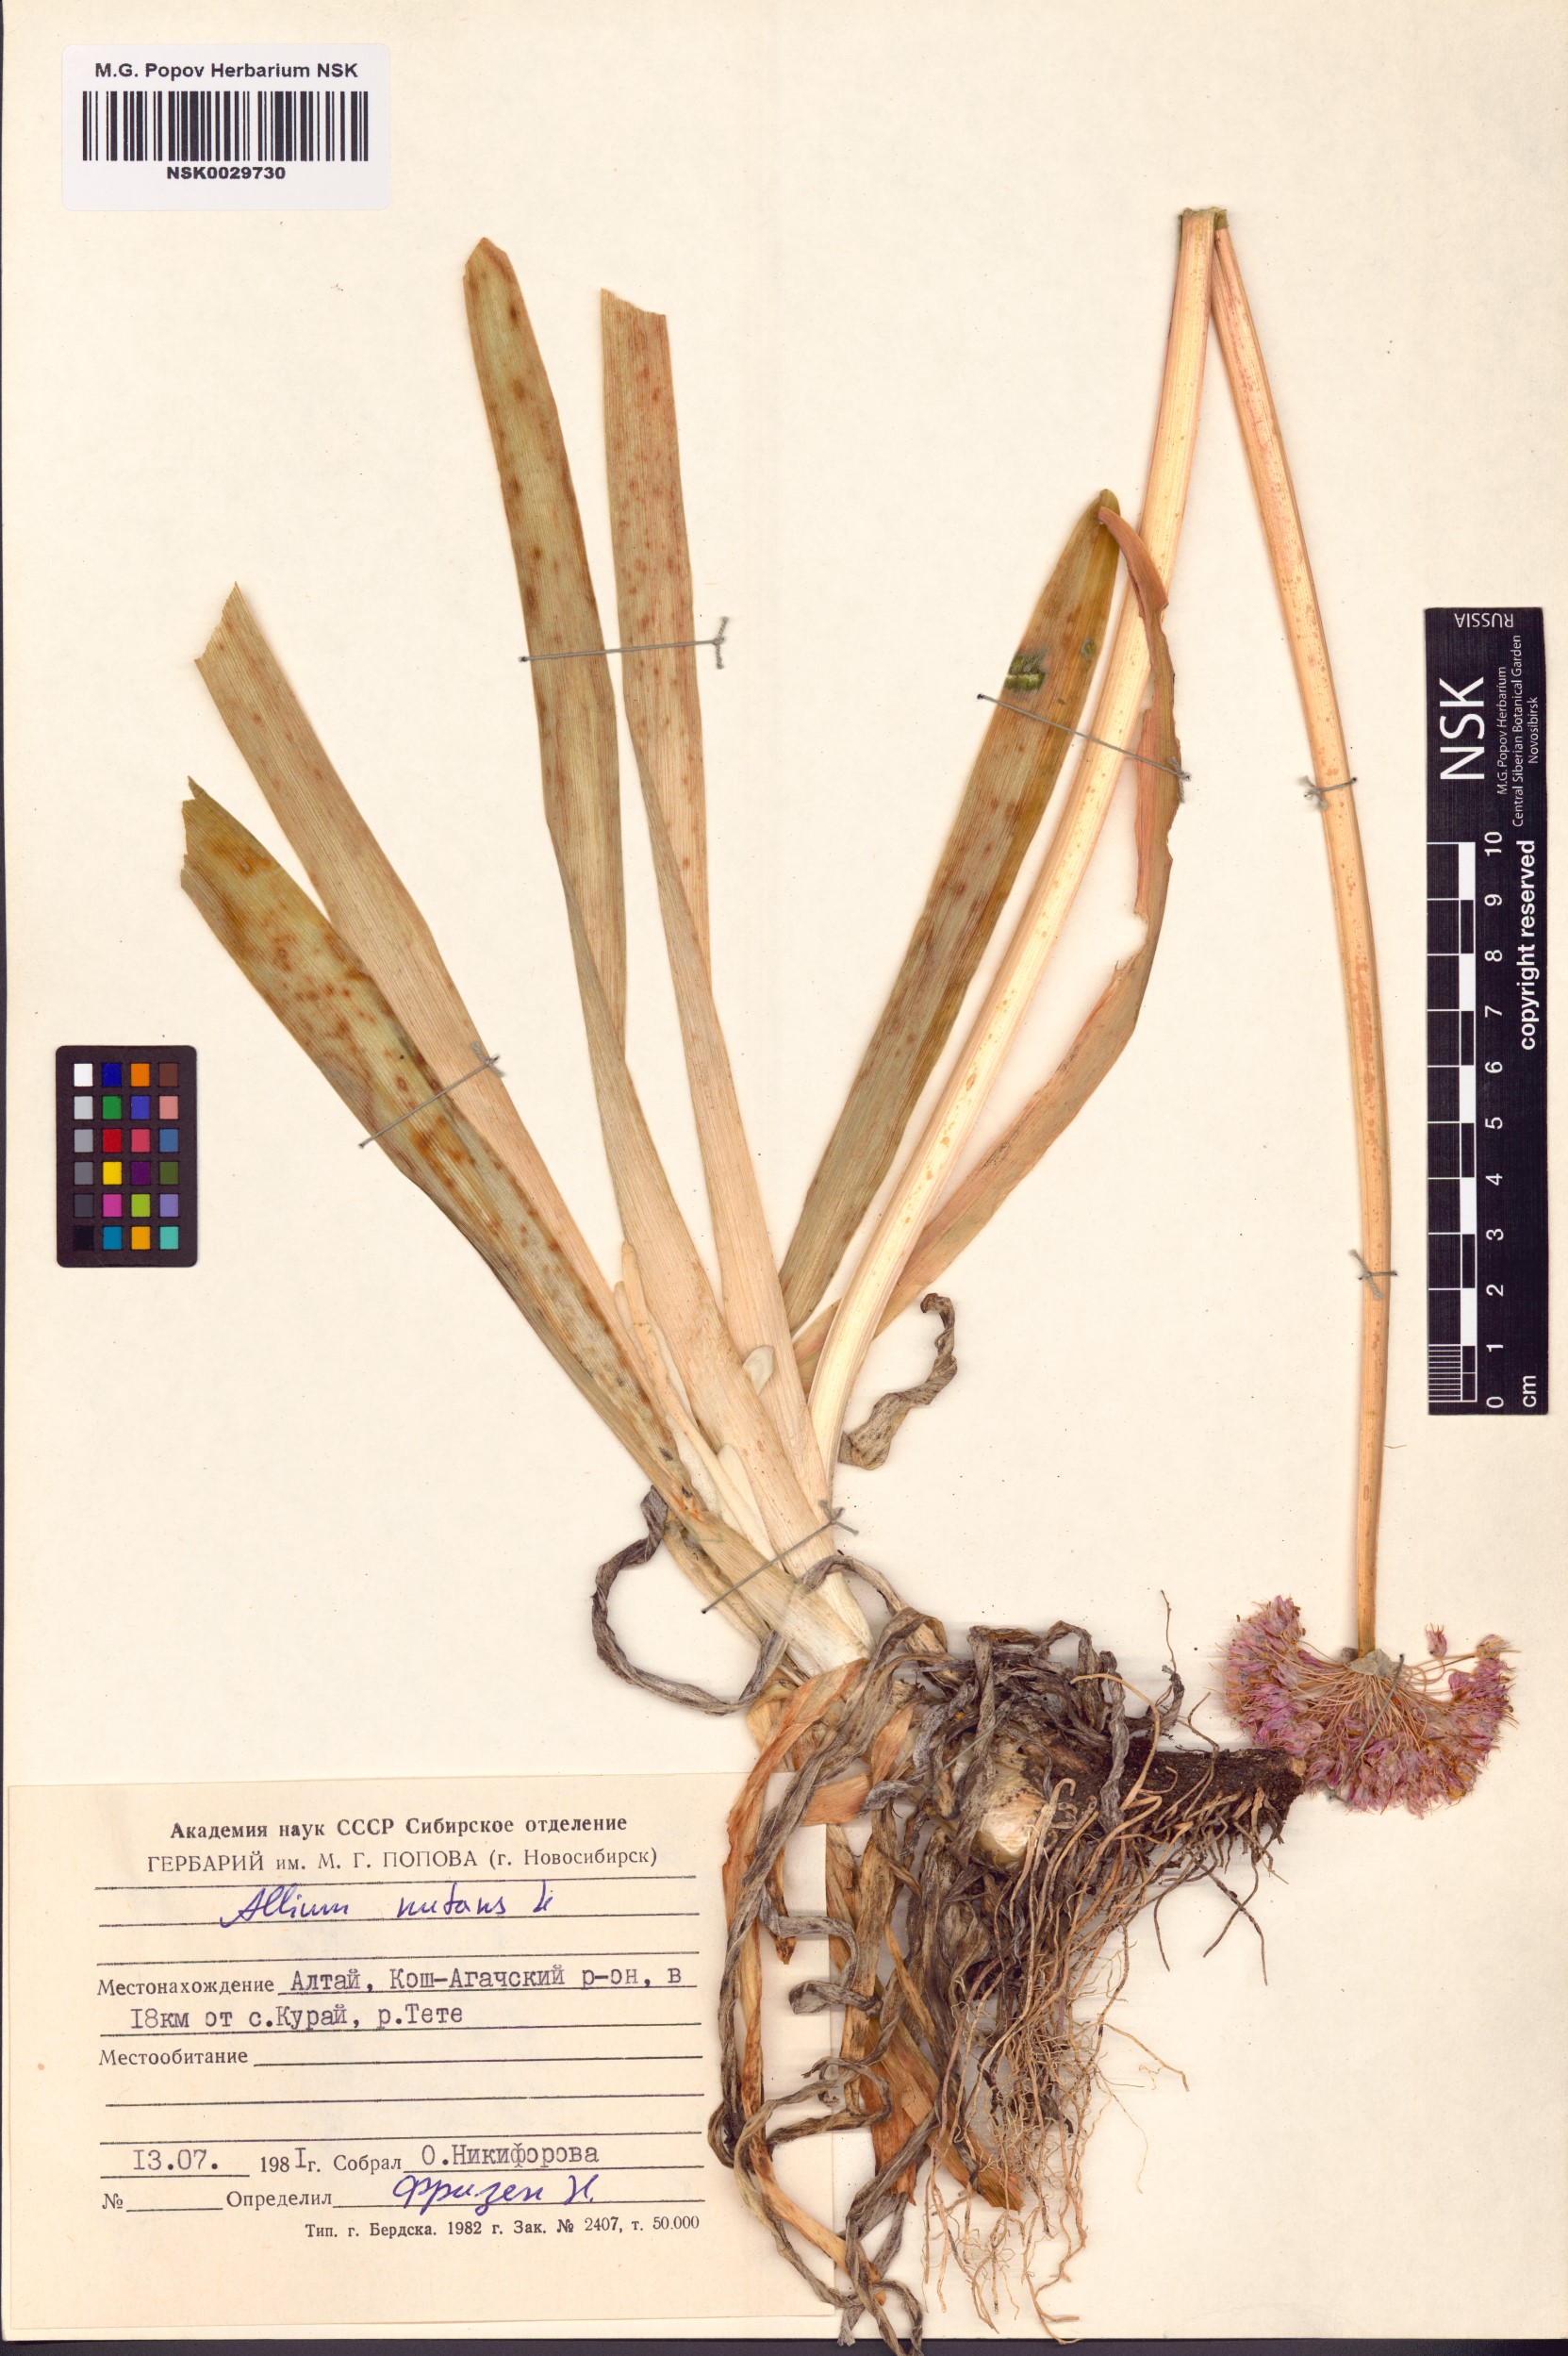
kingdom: Plantae
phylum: Tracheophyta
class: Liliopsida
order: Asparagales
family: Amaryllidaceae
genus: Allium
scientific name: Allium nutans
